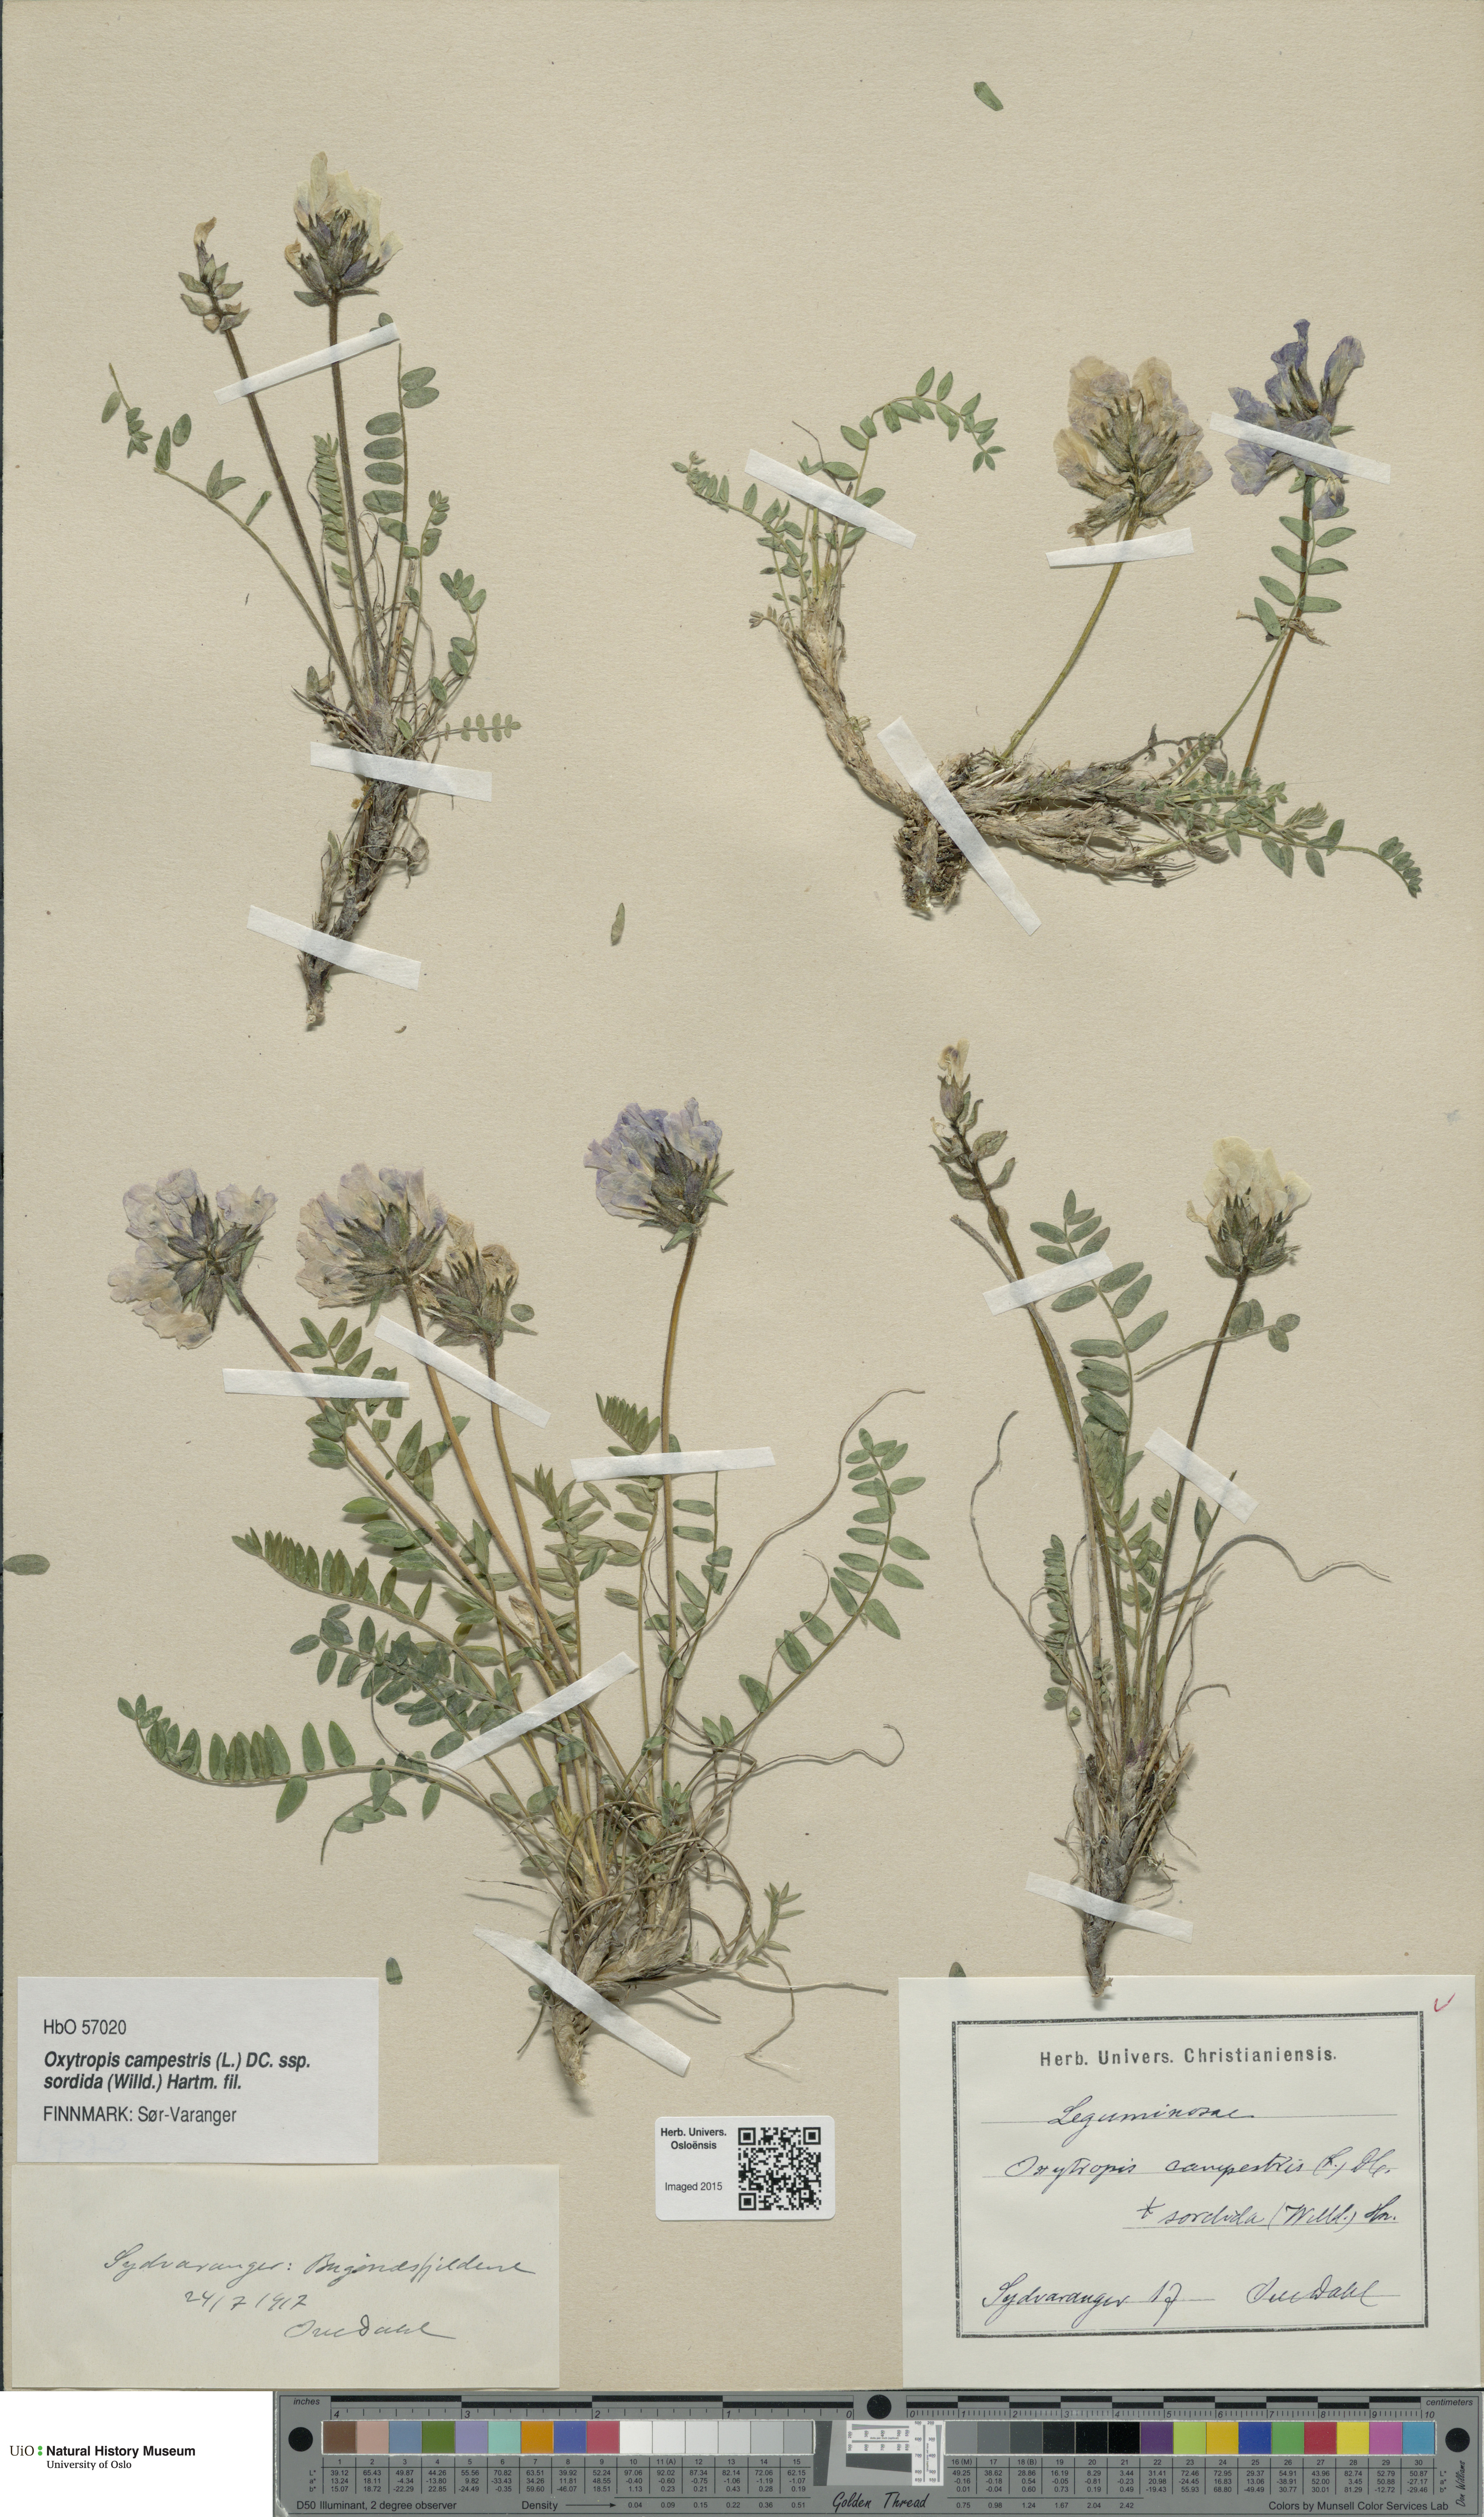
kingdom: Plantae
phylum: Tracheophyta
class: Magnoliopsida
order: Fabales
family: Fabaceae
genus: Oxytropis
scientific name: Oxytropis sordida
